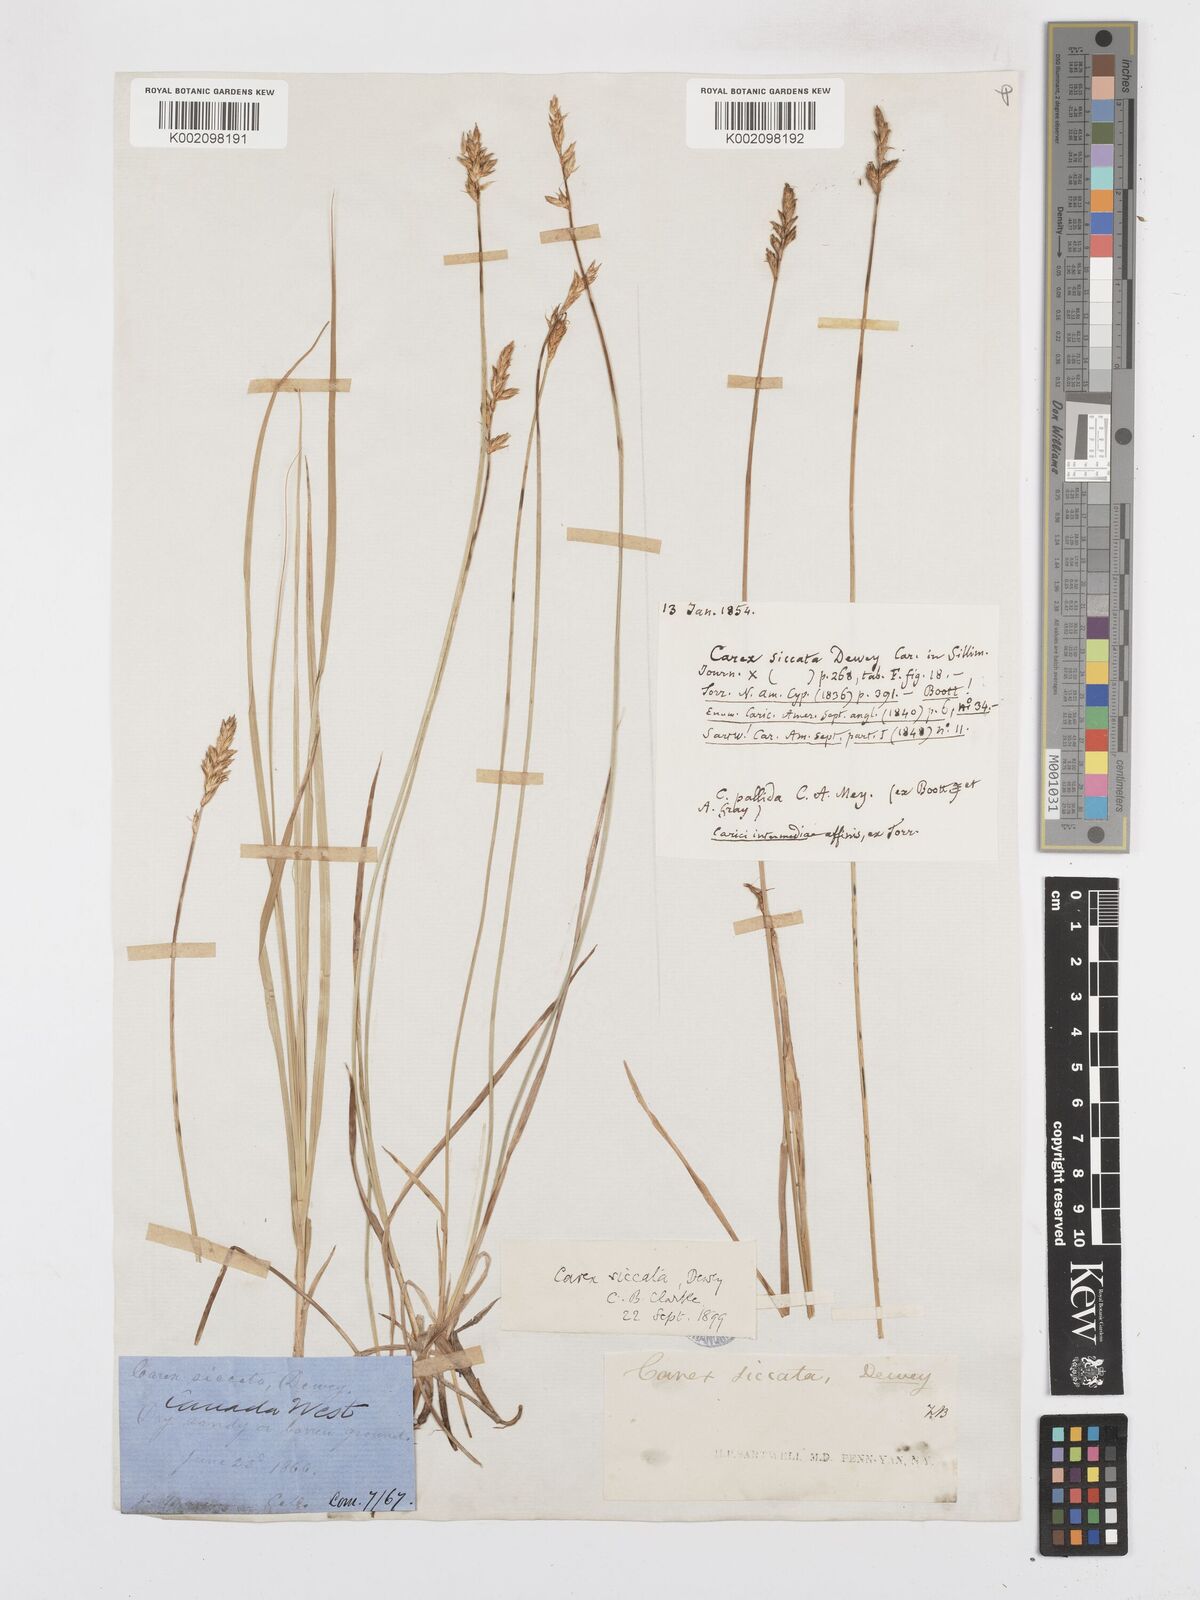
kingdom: Plantae
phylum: Tracheophyta
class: Liliopsida
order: Poales
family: Cyperaceae
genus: Carex
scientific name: Carex foenea
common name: Bronze sedge
